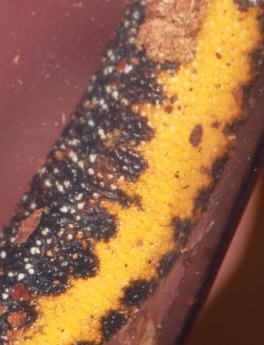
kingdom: Animalia
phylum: Chordata
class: Amphibia
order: Caudata
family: Salamandridae
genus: Triturus
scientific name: Triturus cristatus
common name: Stor vandsalamander
